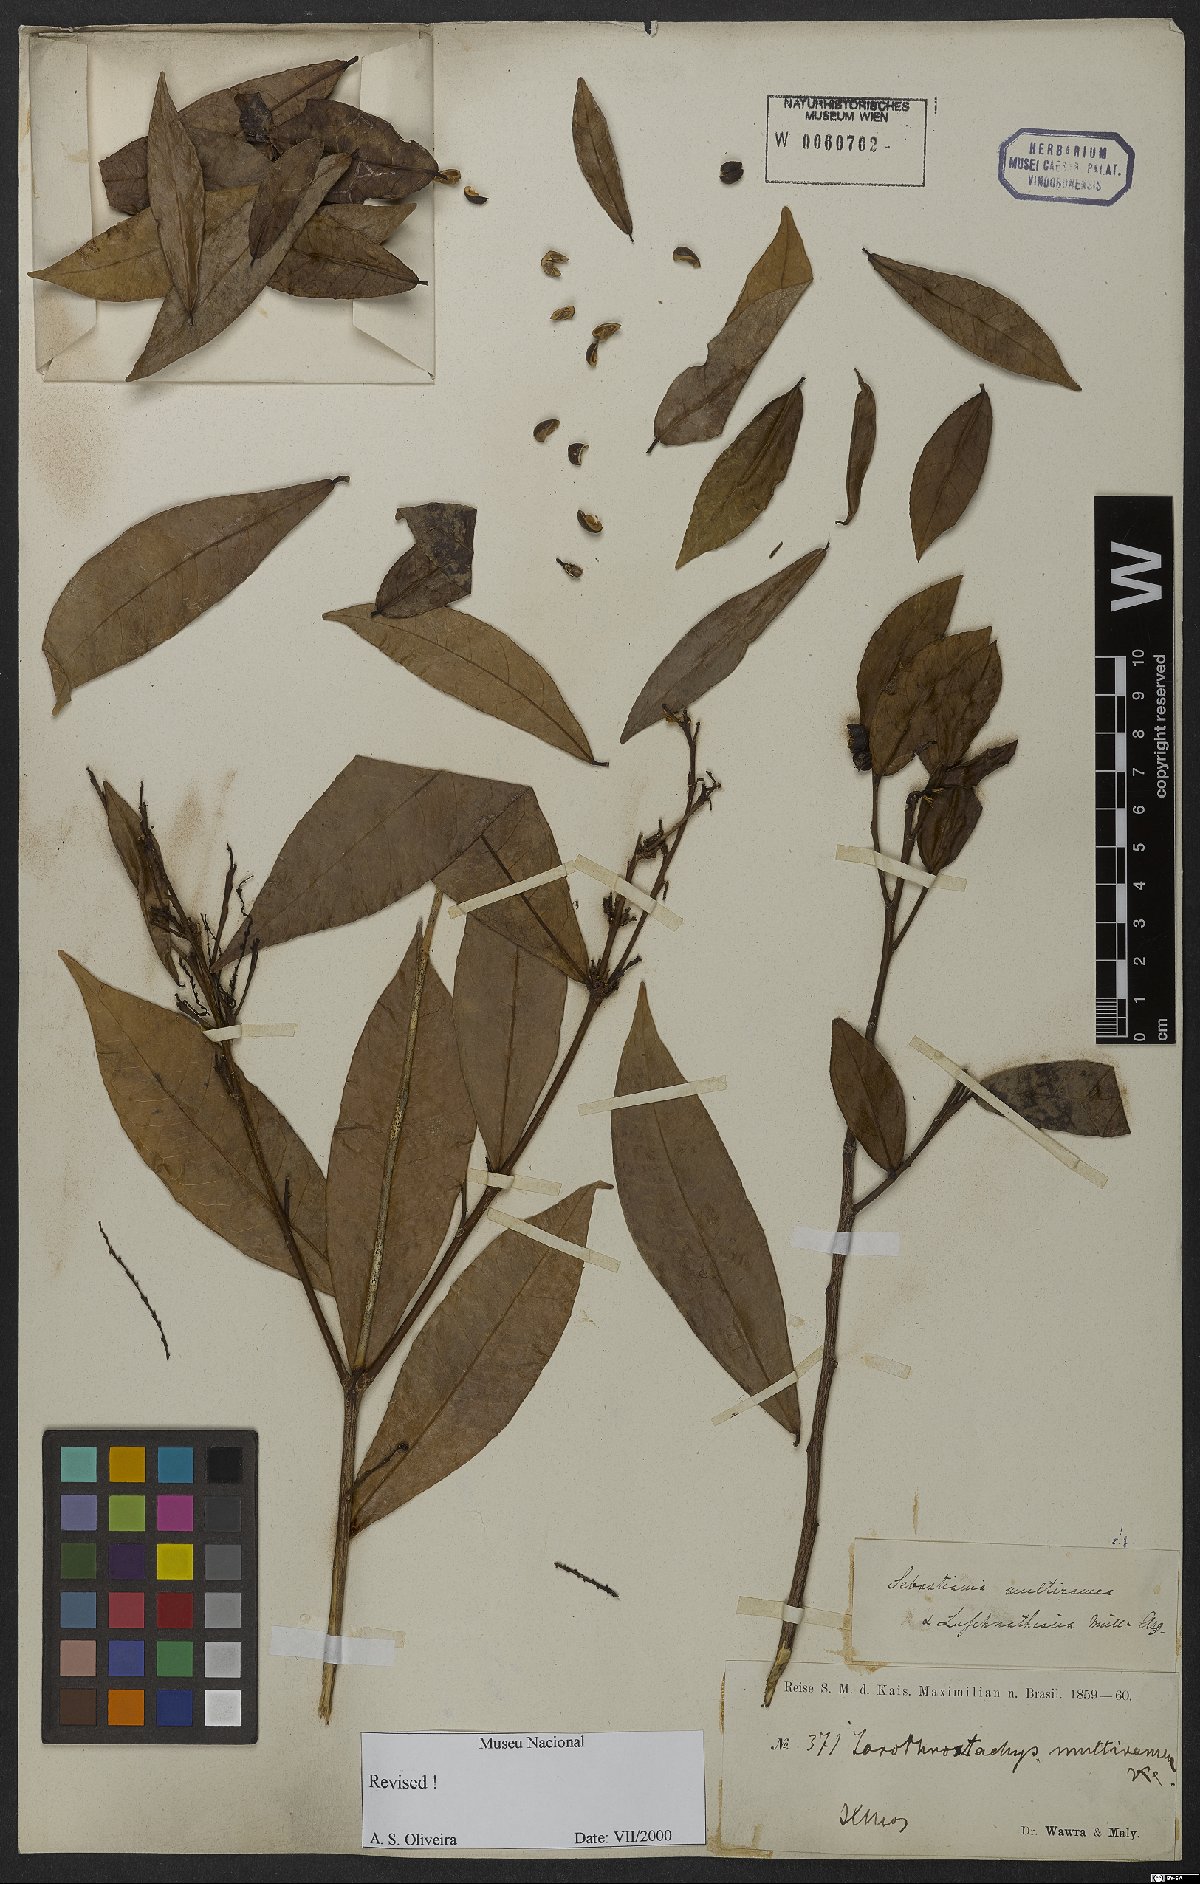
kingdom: Plantae
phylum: Tracheophyta
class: Magnoliopsida
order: Malpighiales
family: Euphorbiaceae
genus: Gymnanthes
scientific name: Gymnanthes glabrata
